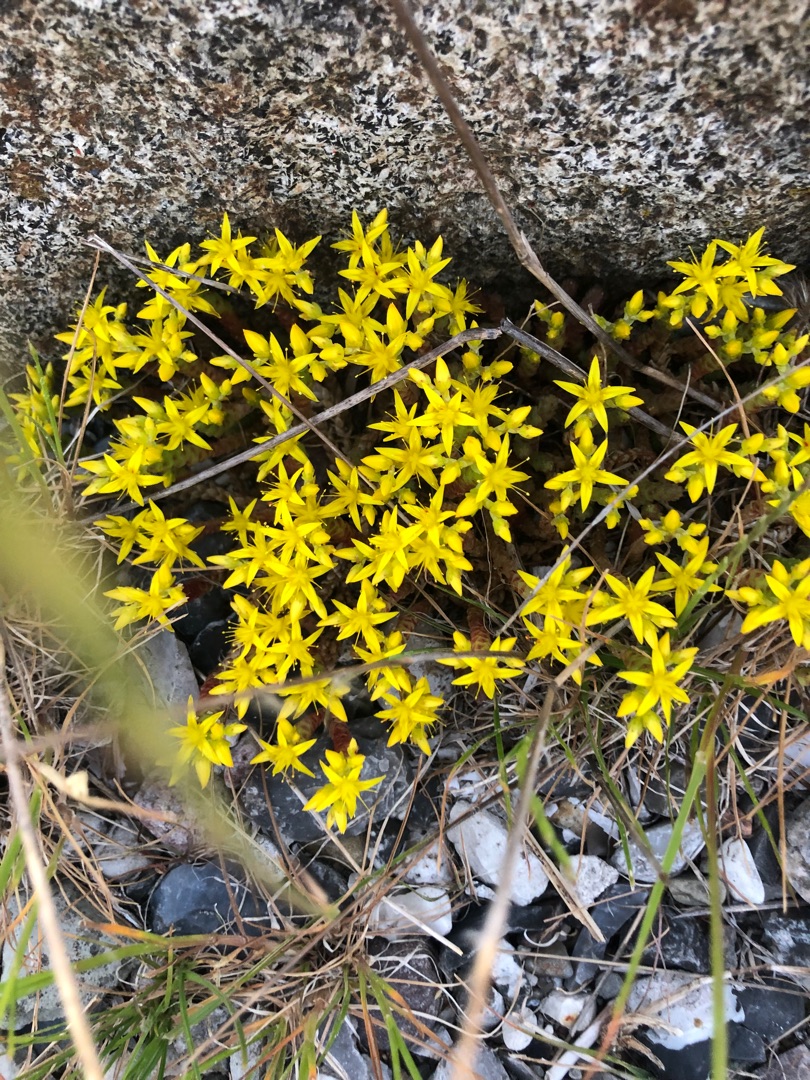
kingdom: Plantae
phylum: Tracheophyta
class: Magnoliopsida
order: Saxifragales
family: Crassulaceae
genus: Sedum
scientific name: Sedum acre
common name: Bidende stenurt
